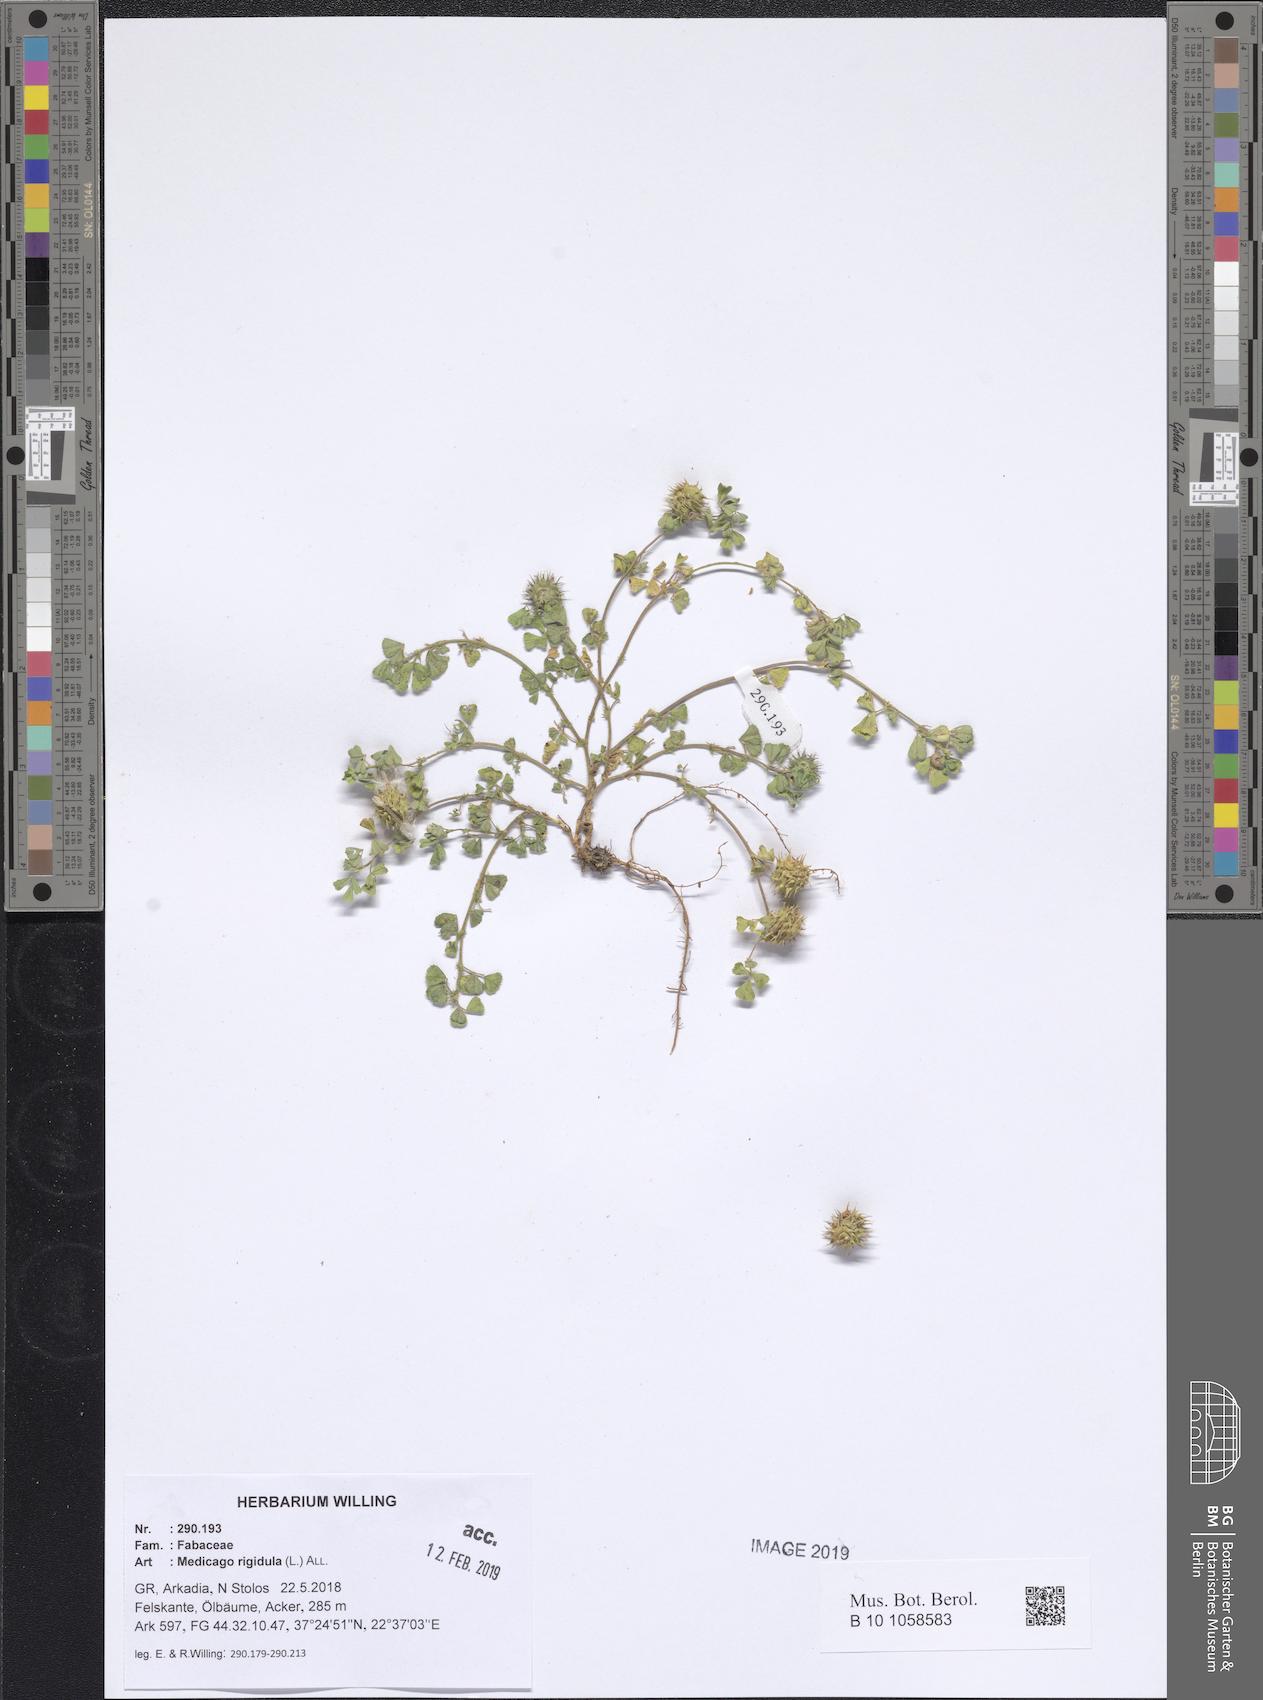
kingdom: Plantae
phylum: Tracheophyta
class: Magnoliopsida
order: Fabales
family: Fabaceae
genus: Medicago
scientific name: Medicago rigidula
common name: Tifton medic
